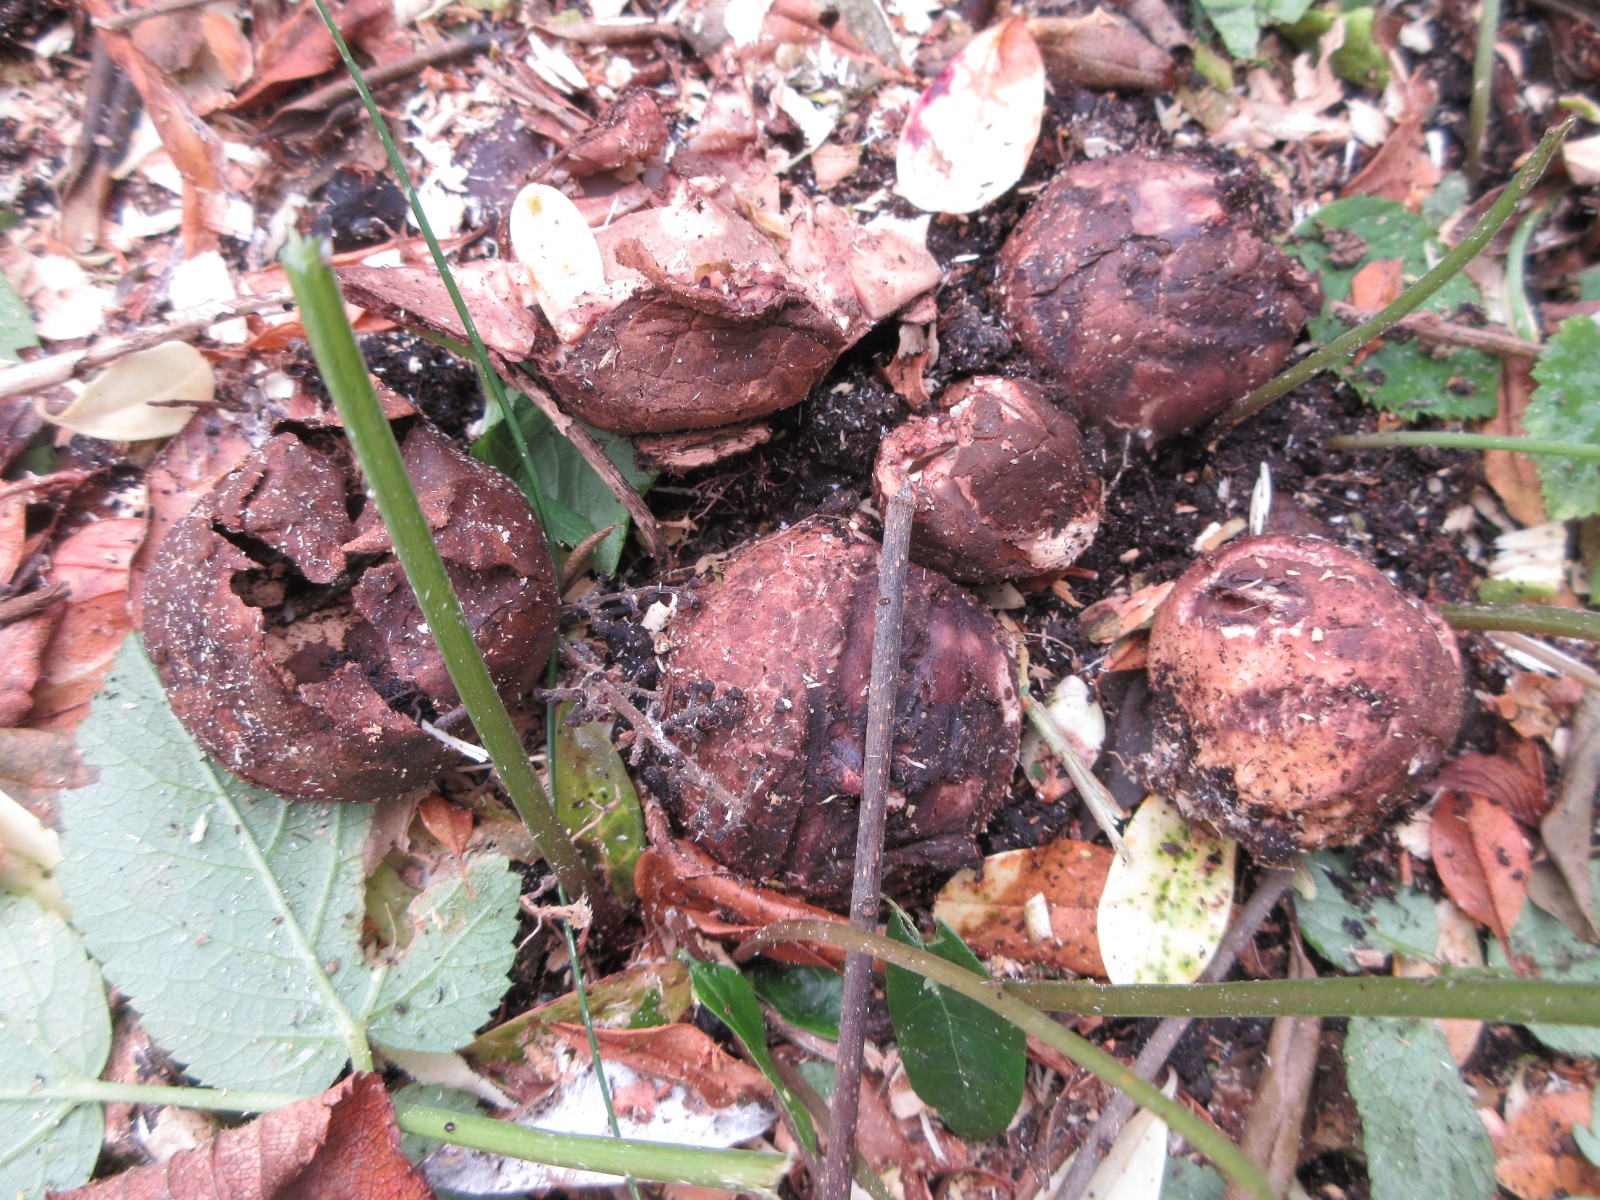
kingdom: Fungi
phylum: Basidiomycota
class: Agaricomycetes
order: Geastrales
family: Geastraceae
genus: Geastrum
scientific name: Geastrum michelianum
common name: kødet stjernebold
